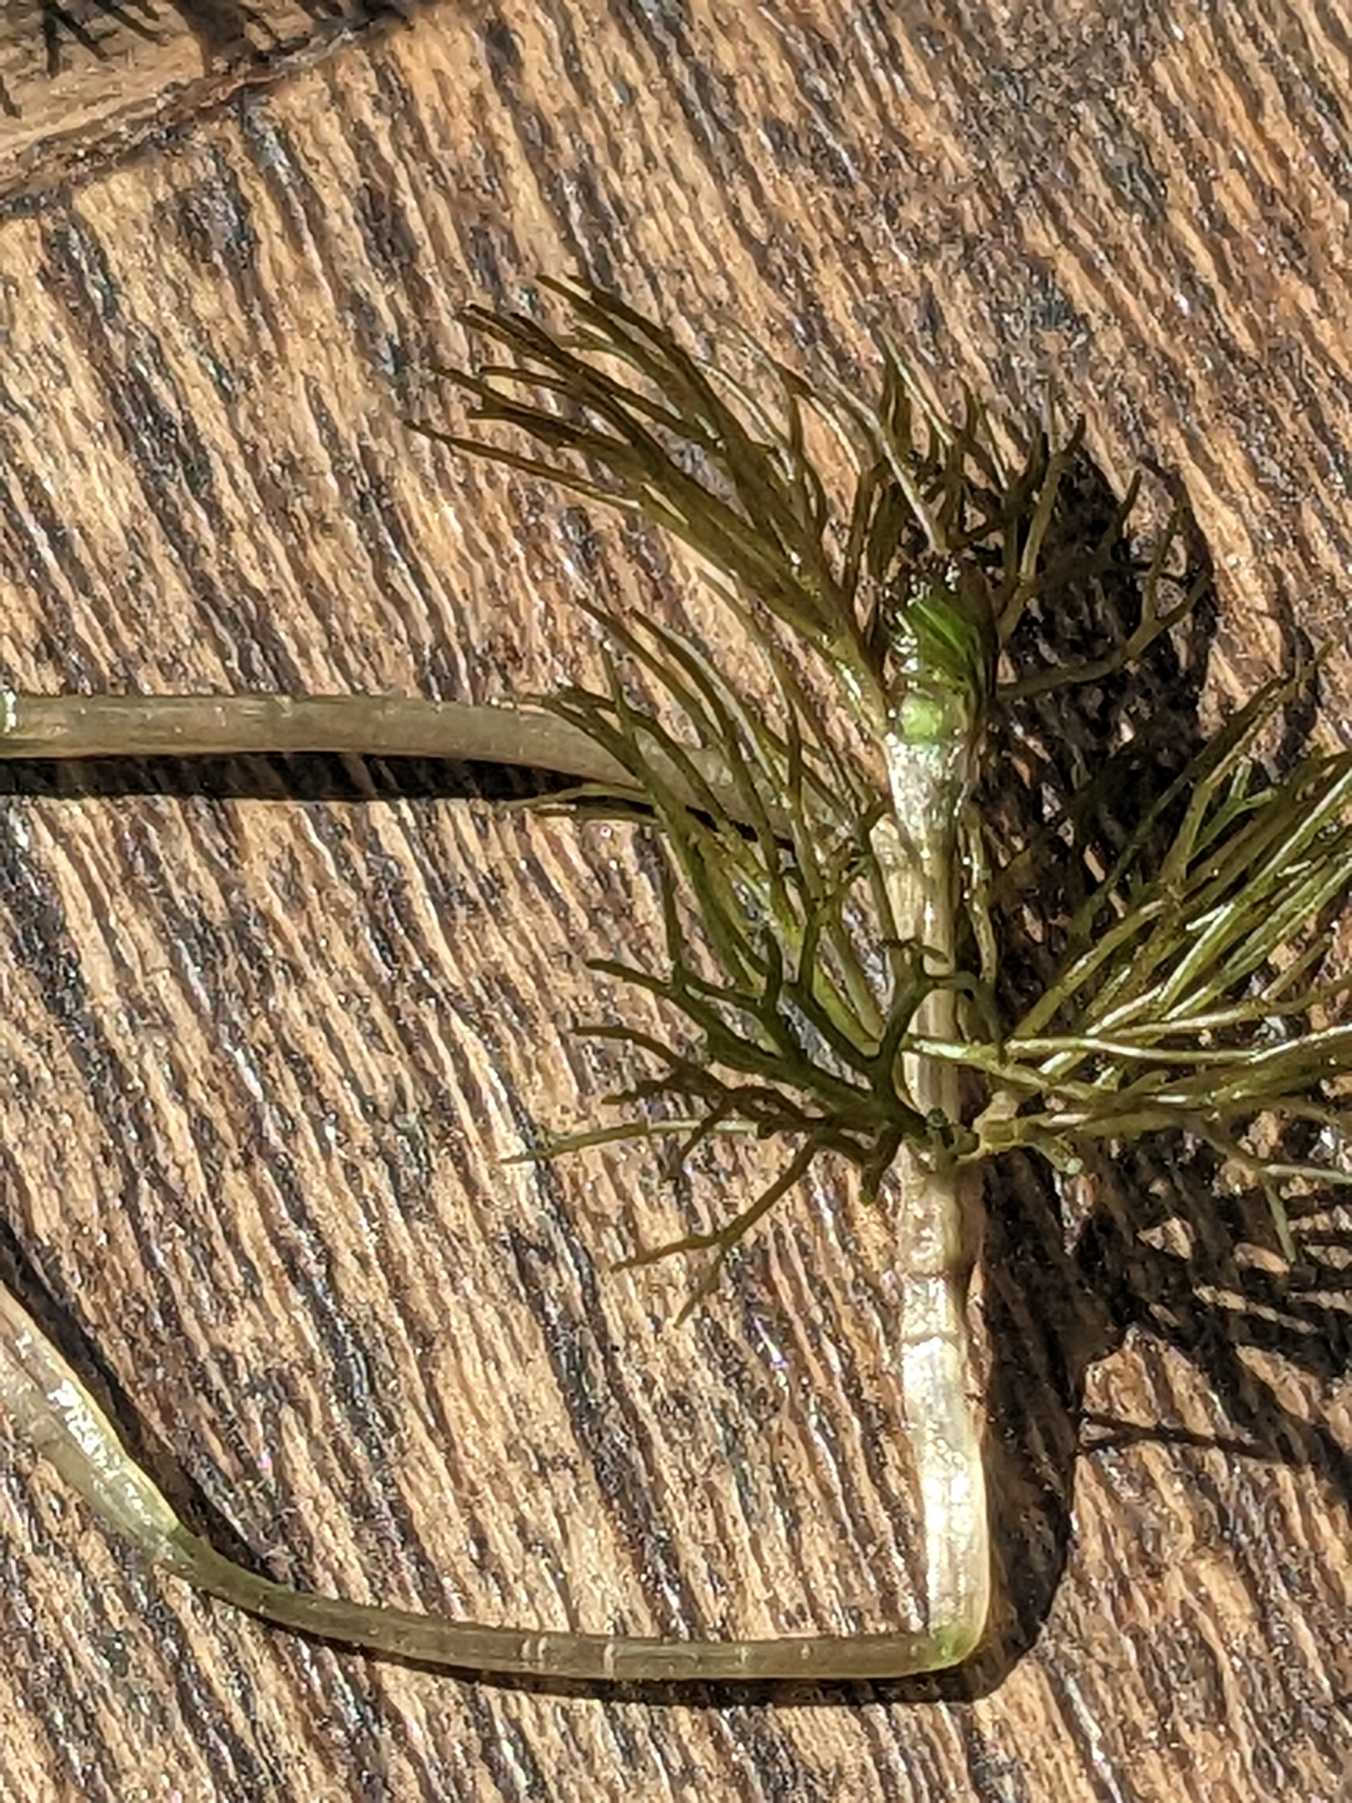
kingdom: Plantae
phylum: Tracheophyta
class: Magnoliopsida
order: Ceratophyllales
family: Ceratophyllaceae
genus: Ceratophyllum
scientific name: Ceratophyllum submersum
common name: Tornløs hornblad
